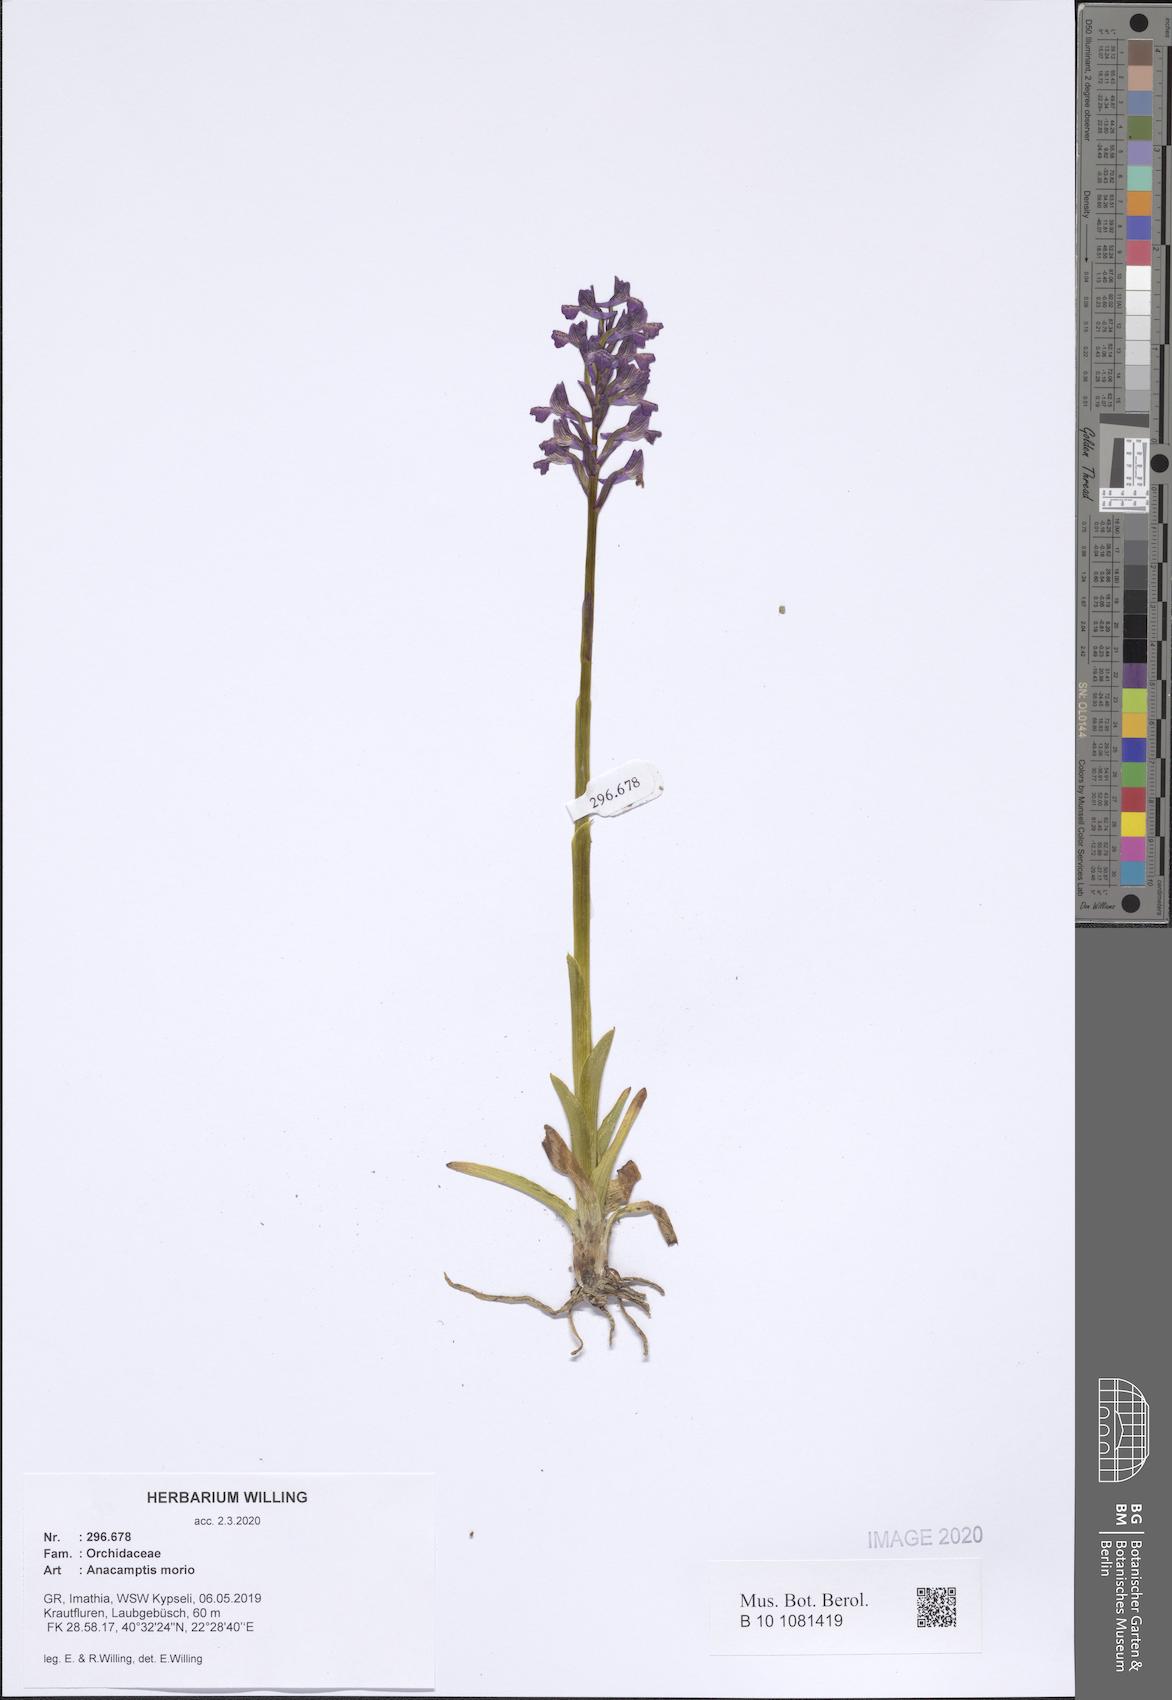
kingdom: Plantae
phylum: Tracheophyta
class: Liliopsida
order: Asparagales
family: Orchidaceae
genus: Anacamptis
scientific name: Anacamptis morio
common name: Green-winged orchid
